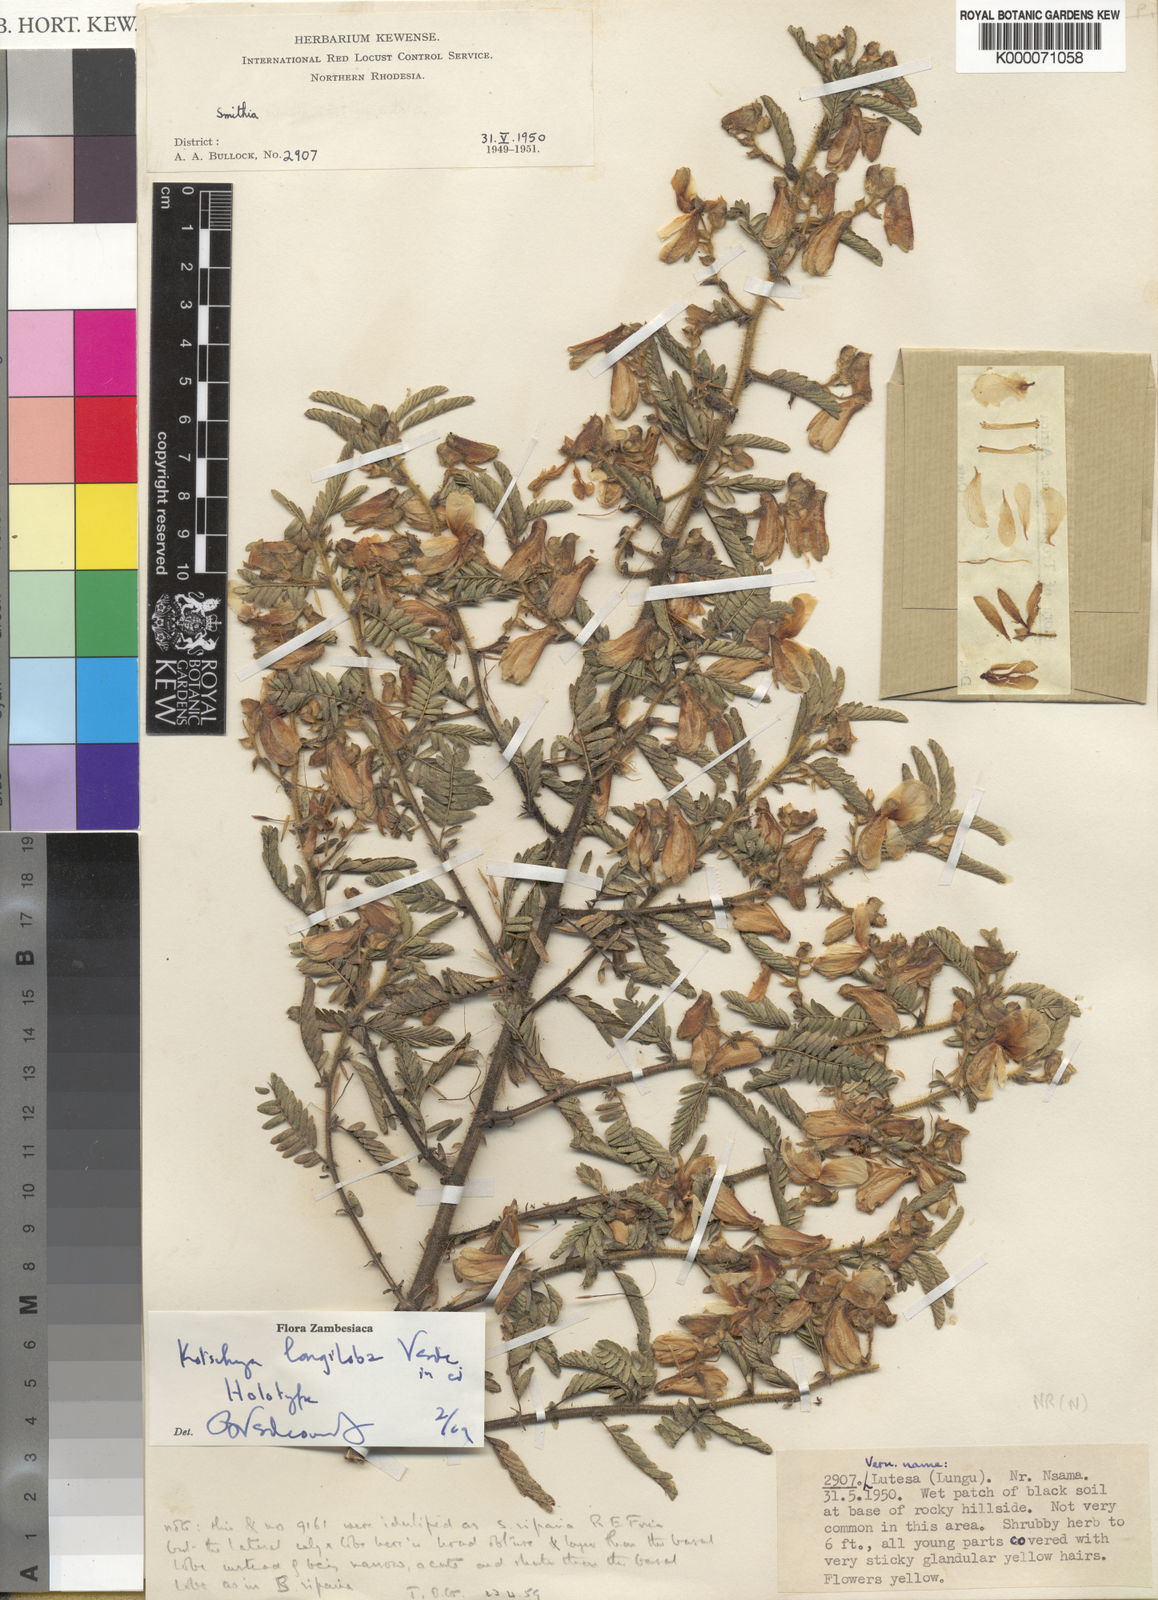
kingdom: Plantae
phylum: Tracheophyta
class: Magnoliopsida
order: Fabales
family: Fabaceae
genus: Kotschya
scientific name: Kotschya longiloba
